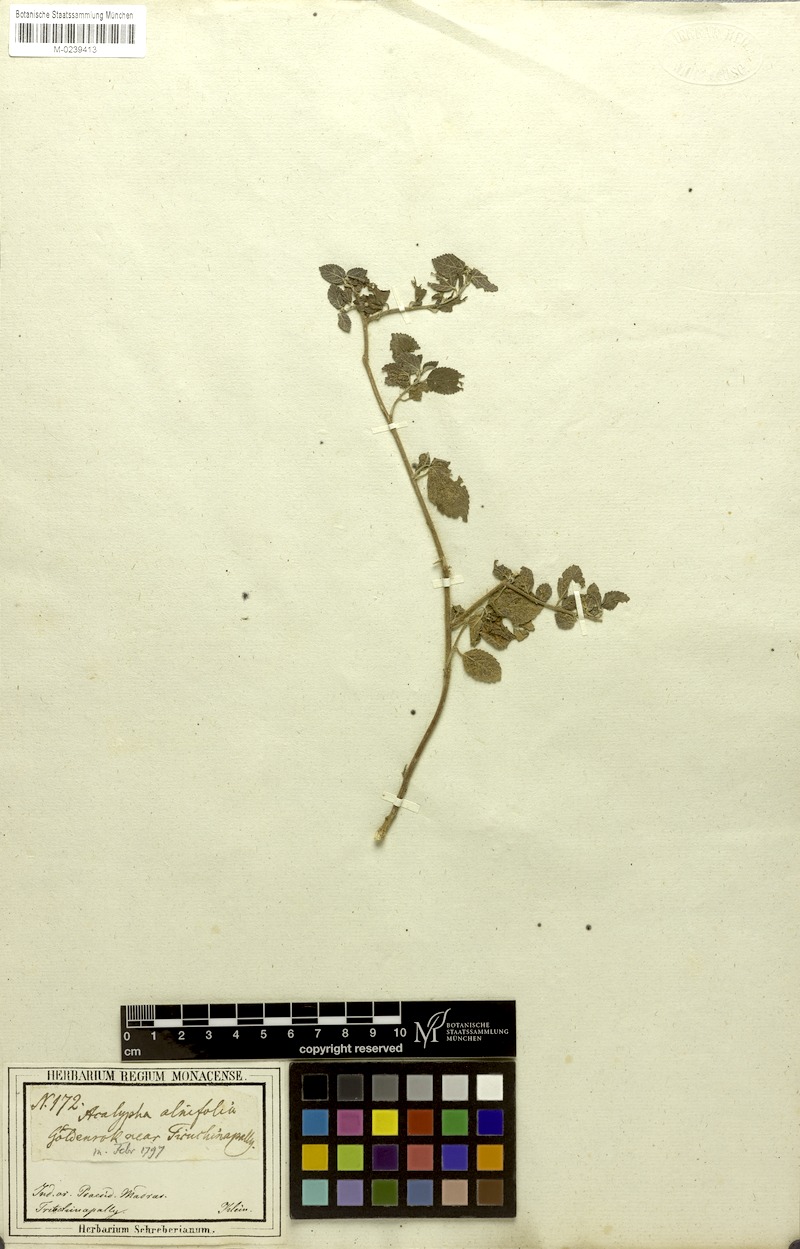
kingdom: Plantae
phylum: Tracheophyta
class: Magnoliopsida
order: Malpighiales
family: Euphorbiaceae
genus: Acalypha
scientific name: Acalypha capitata
